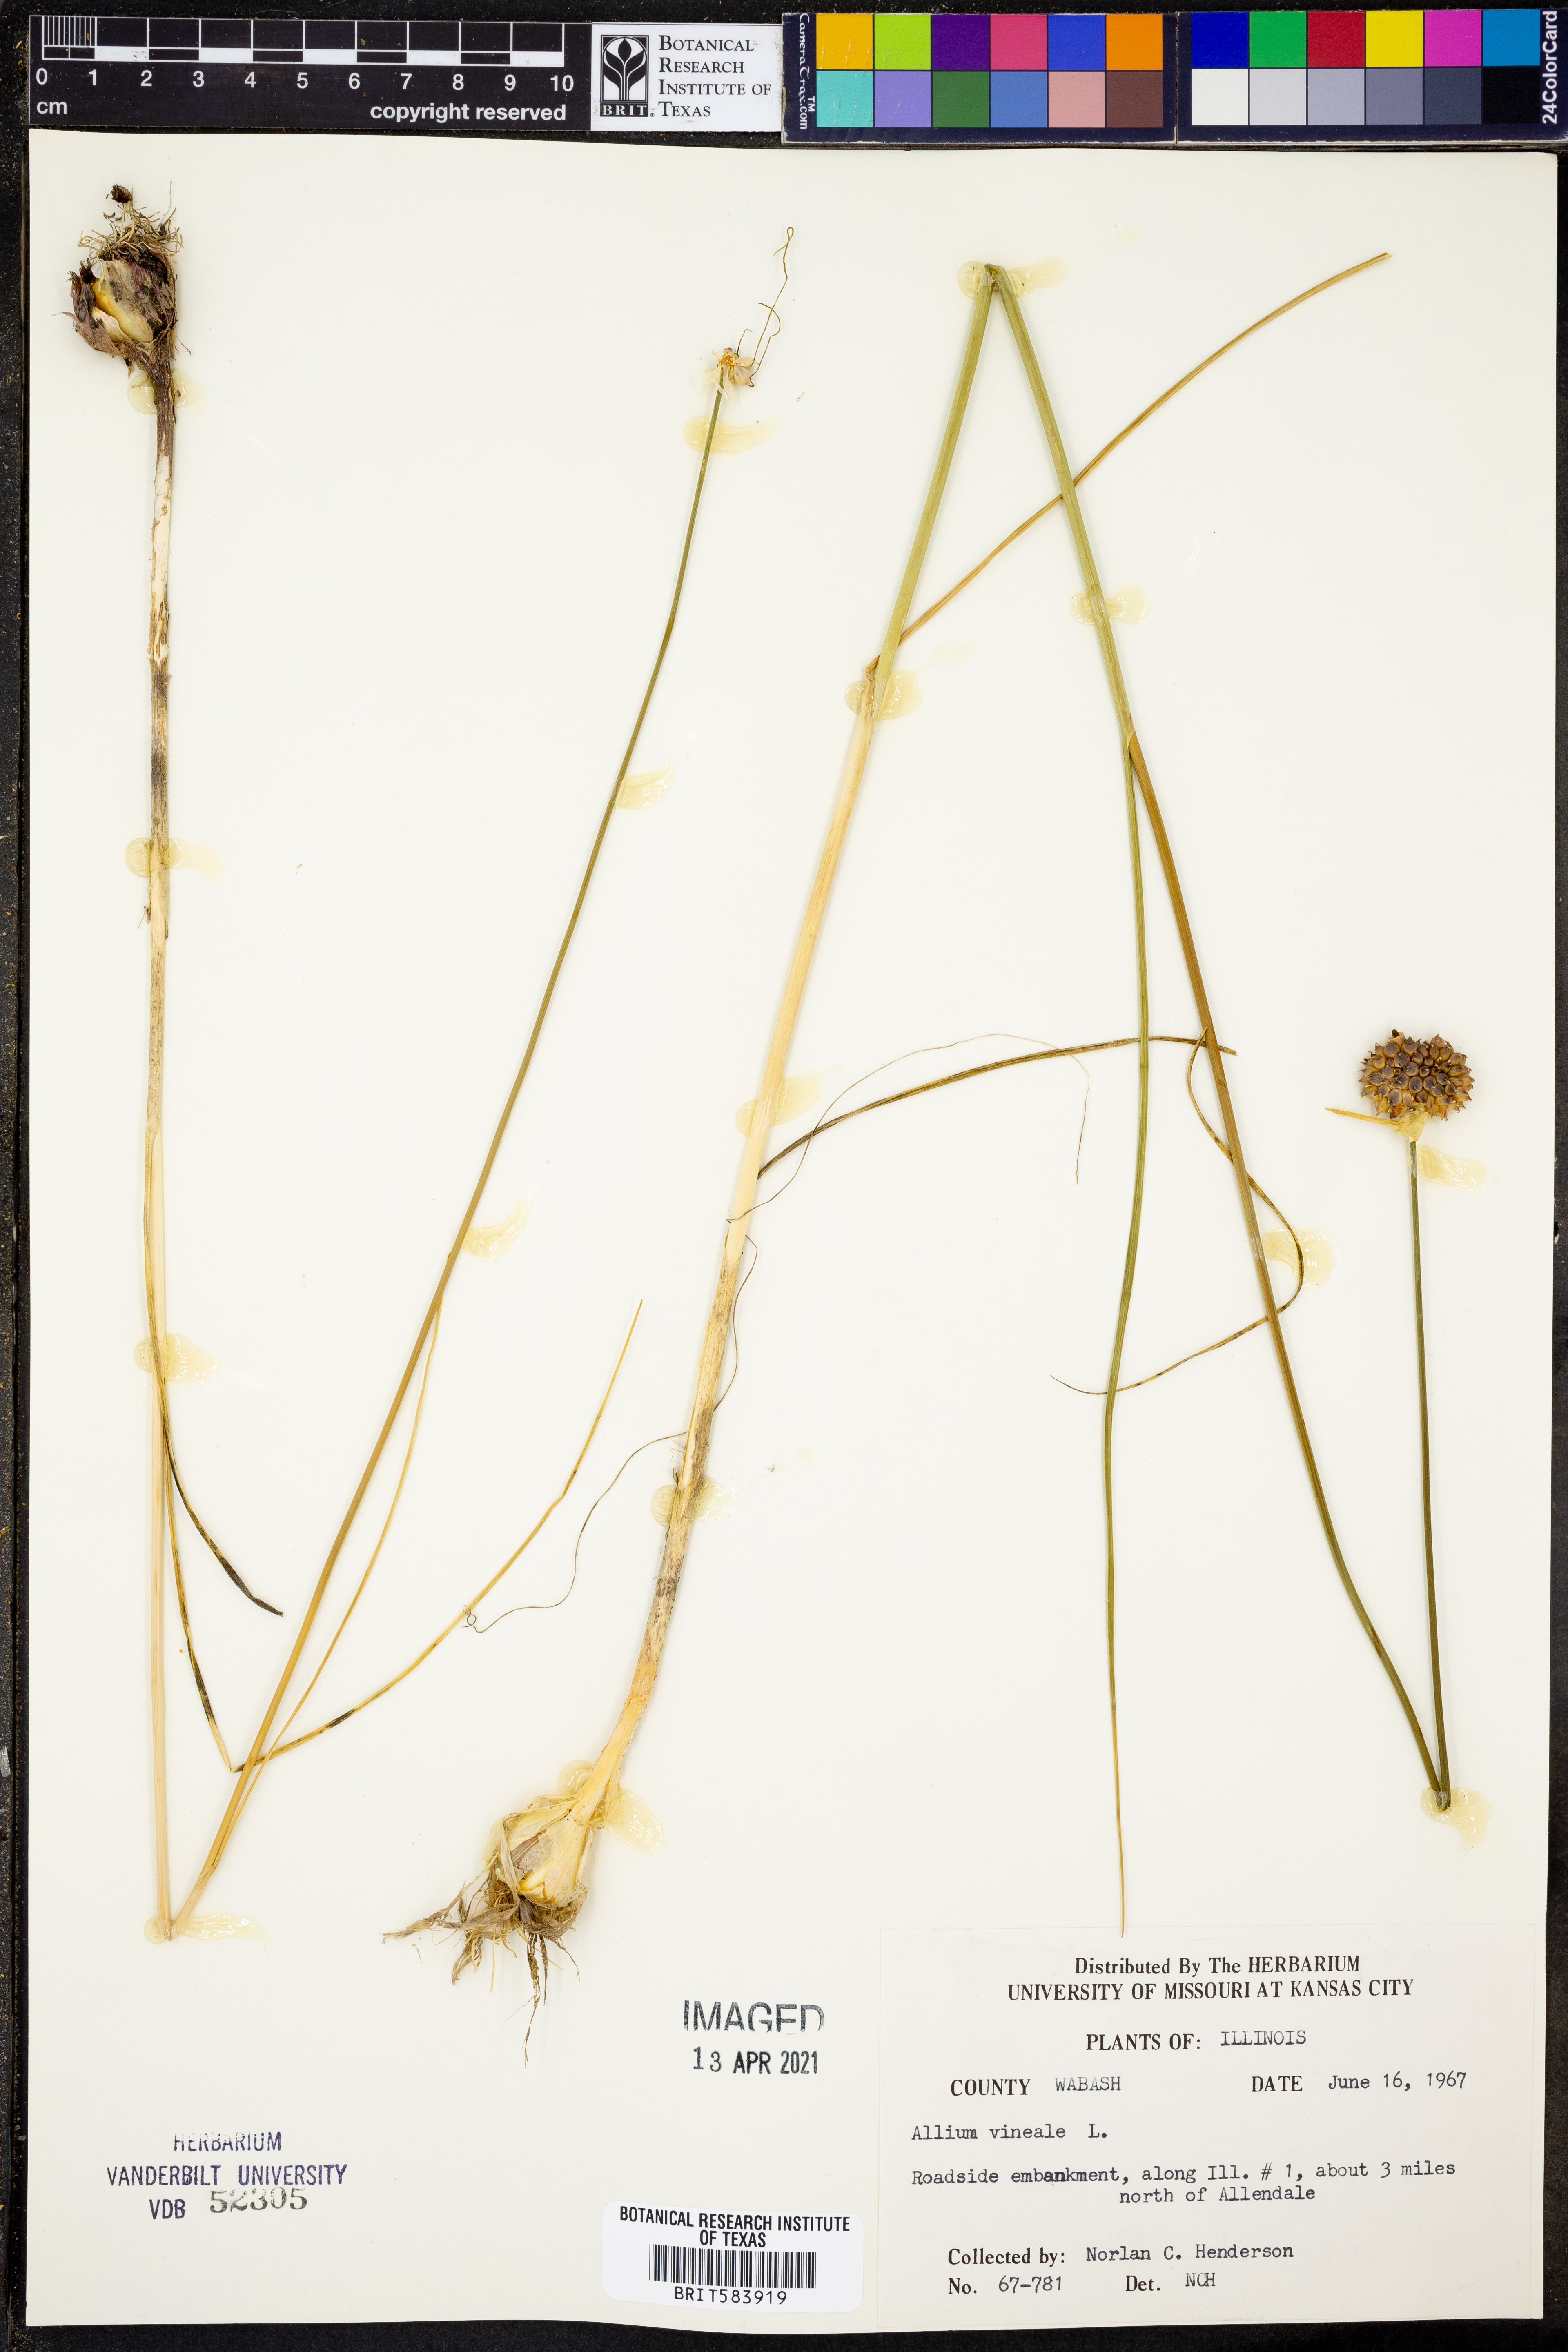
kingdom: Plantae
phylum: Tracheophyta
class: Liliopsida
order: Asparagales
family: Amaryllidaceae
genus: Allium
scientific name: Allium vineale
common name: Crow garlic
